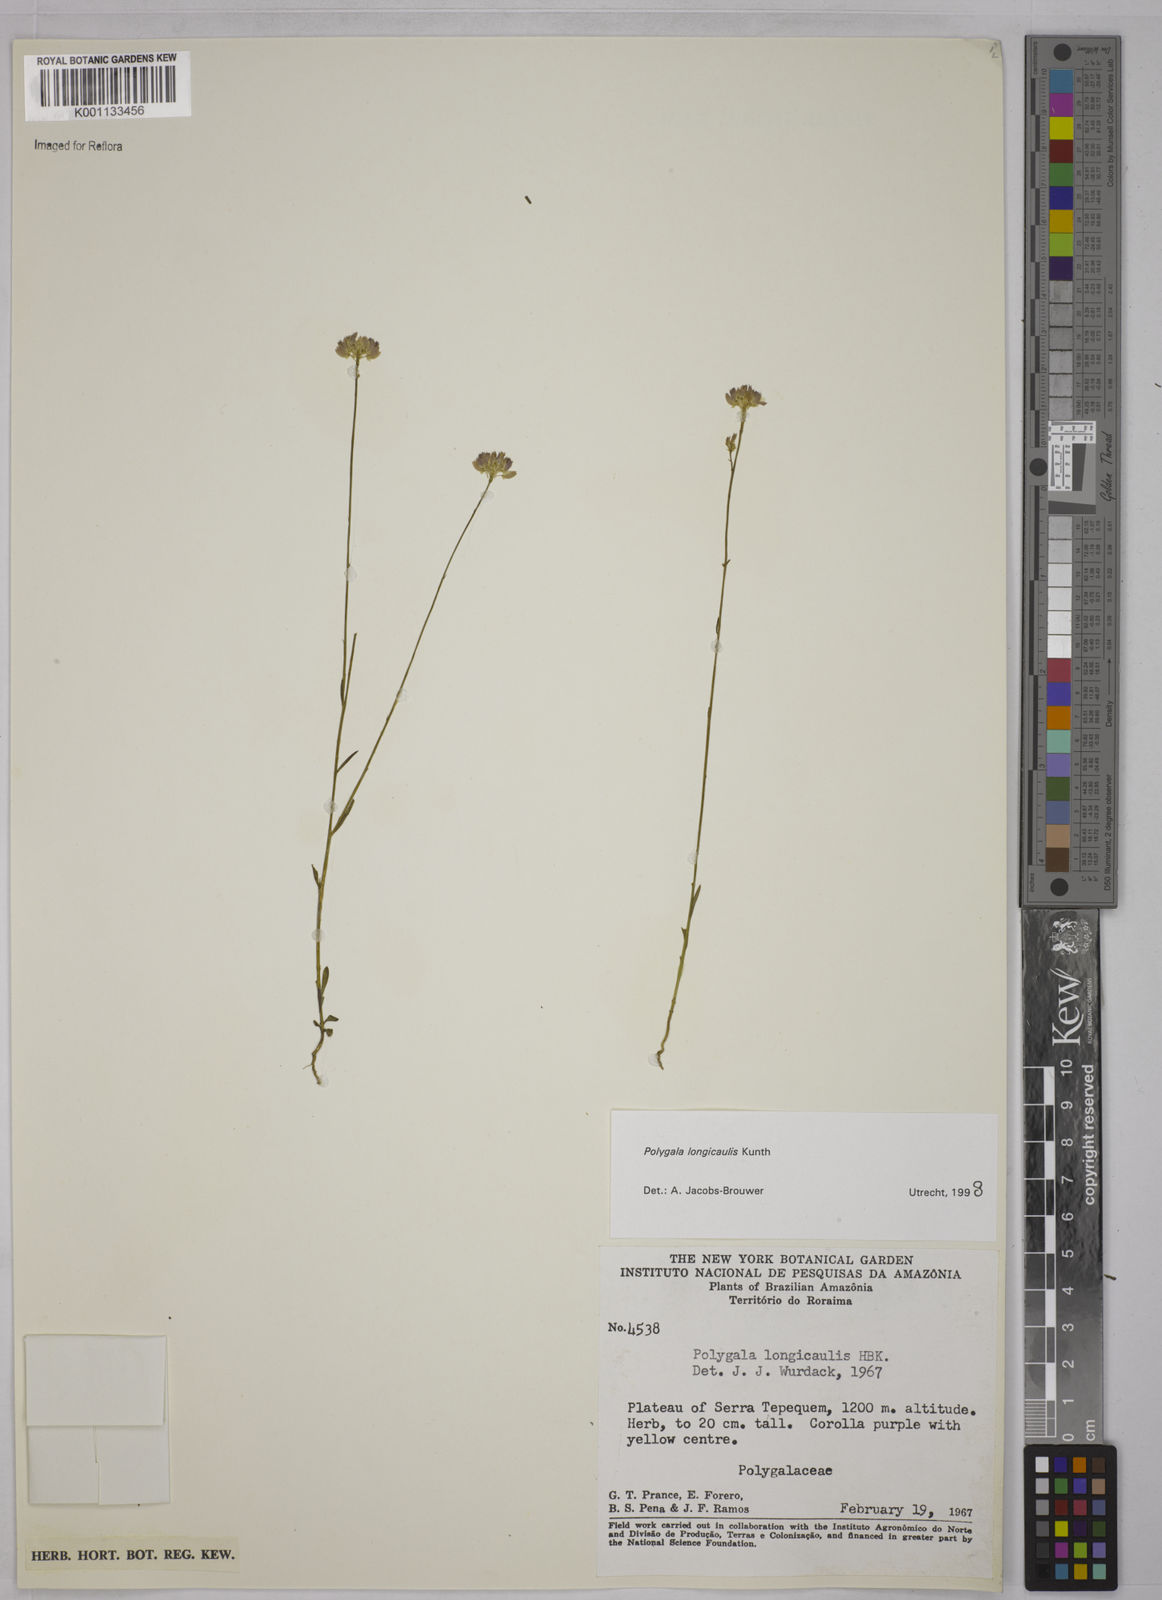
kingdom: Plantae
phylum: Tracheophyta
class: Magnoliopsida
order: Fabales
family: Polygalaceae
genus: Polygala
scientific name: Polygala longicaulis
